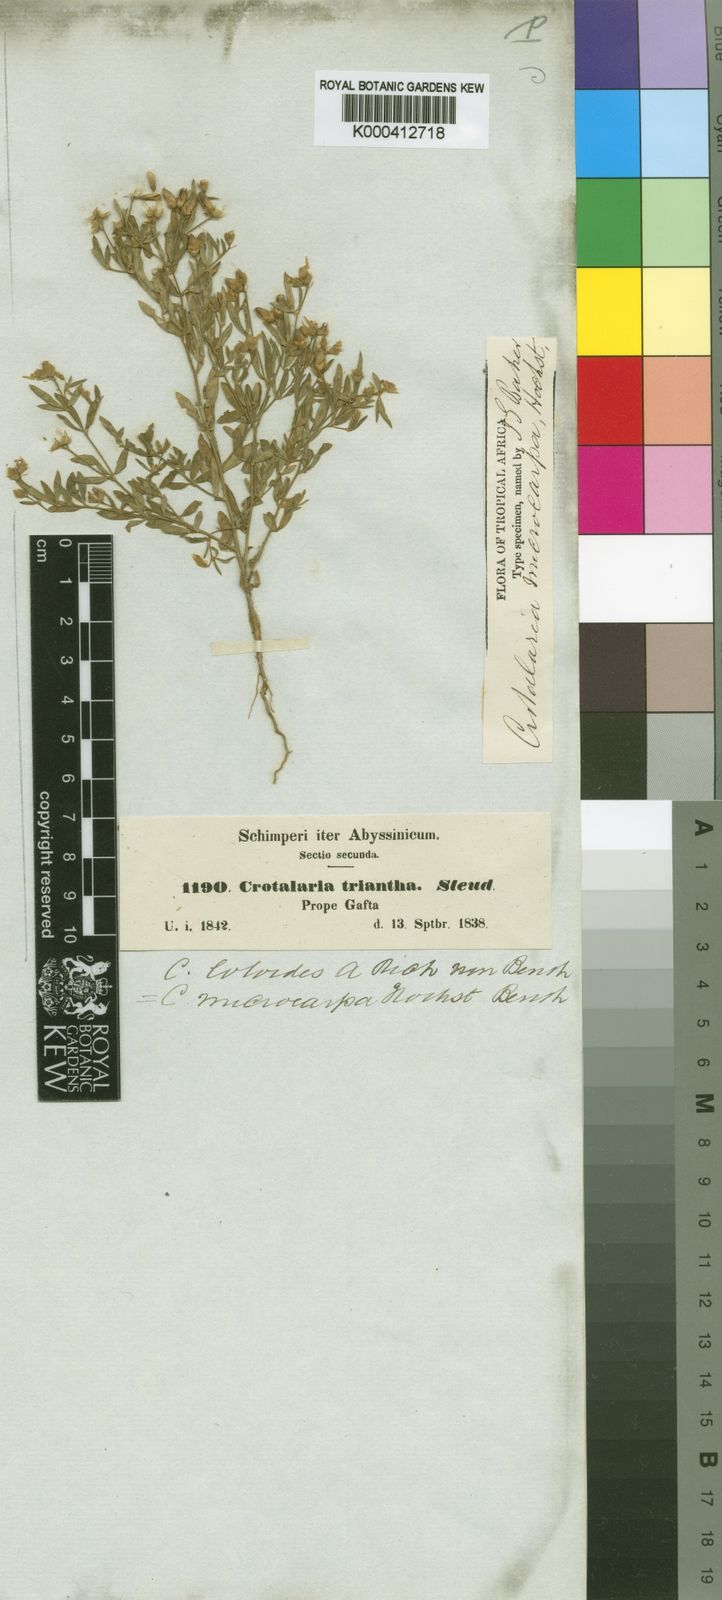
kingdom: Plantae
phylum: Tracheophyta
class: Magnoliopsida
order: Fabales
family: Fabaceae
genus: Crotalaria
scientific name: Crotalaria microcarpa
